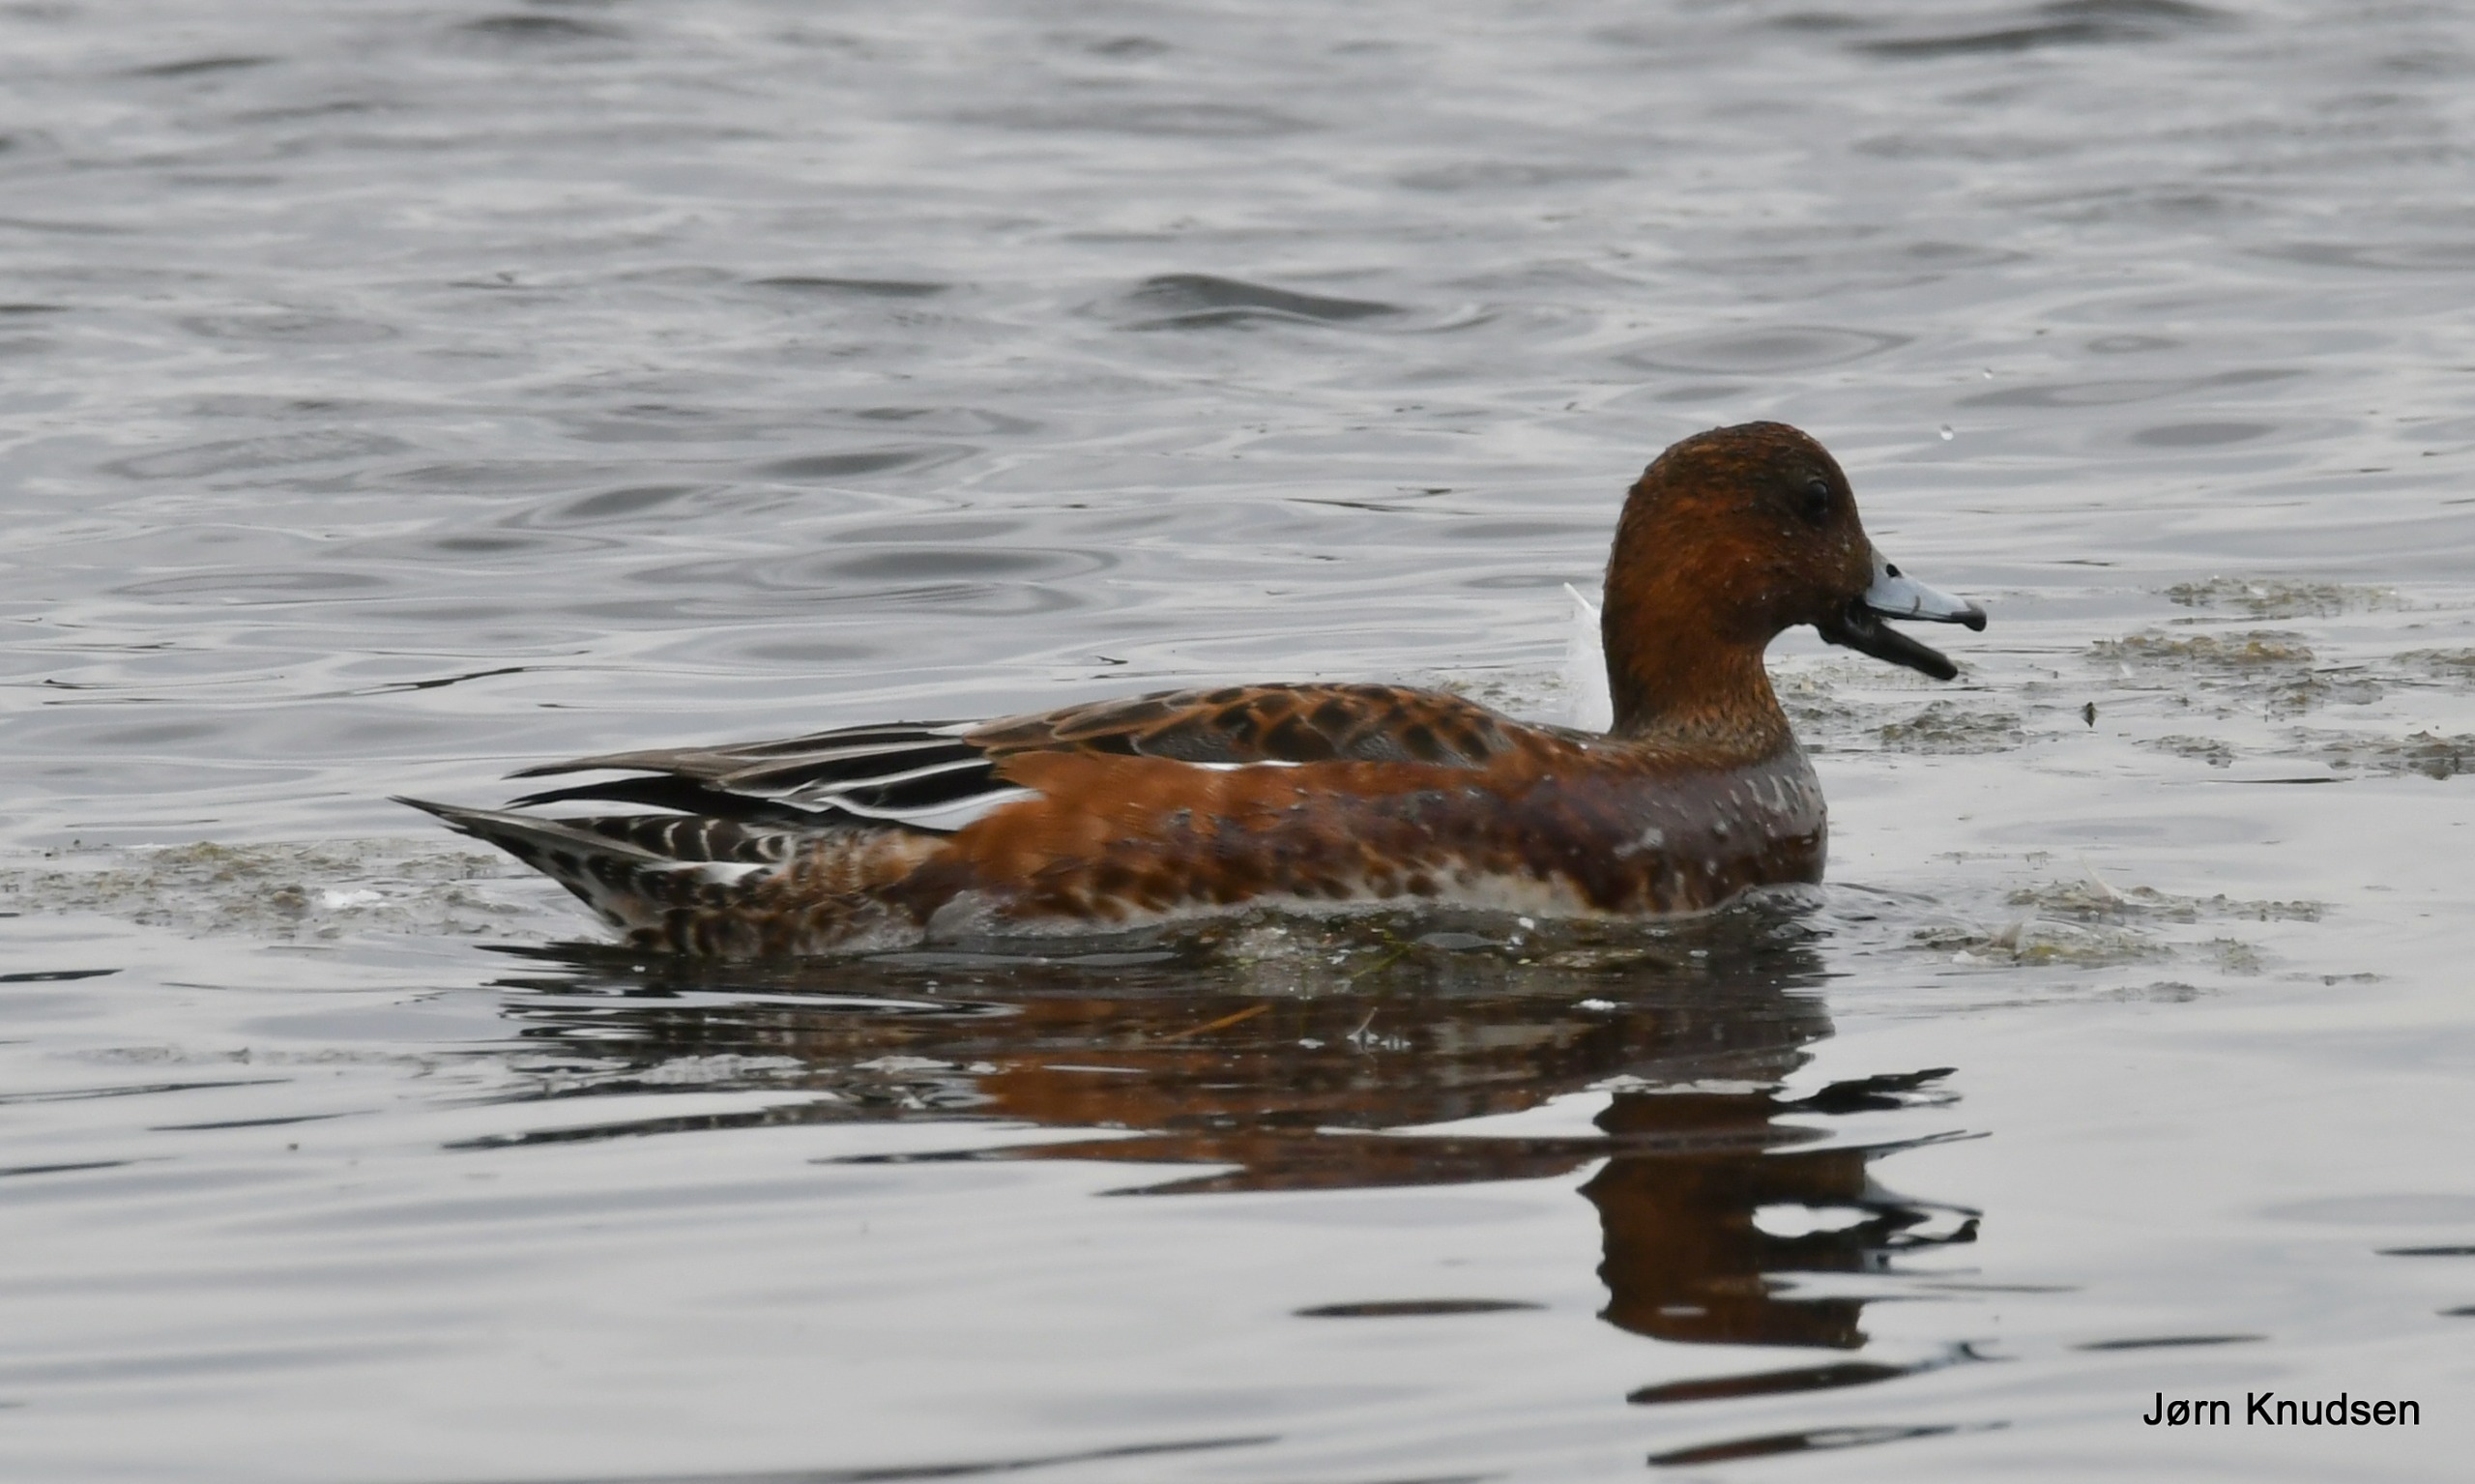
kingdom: Animalia
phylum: Chordata
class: Aves
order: Anseriformes
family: Anatidae
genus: Mareca
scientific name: Mareca penelope
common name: Pibeand
